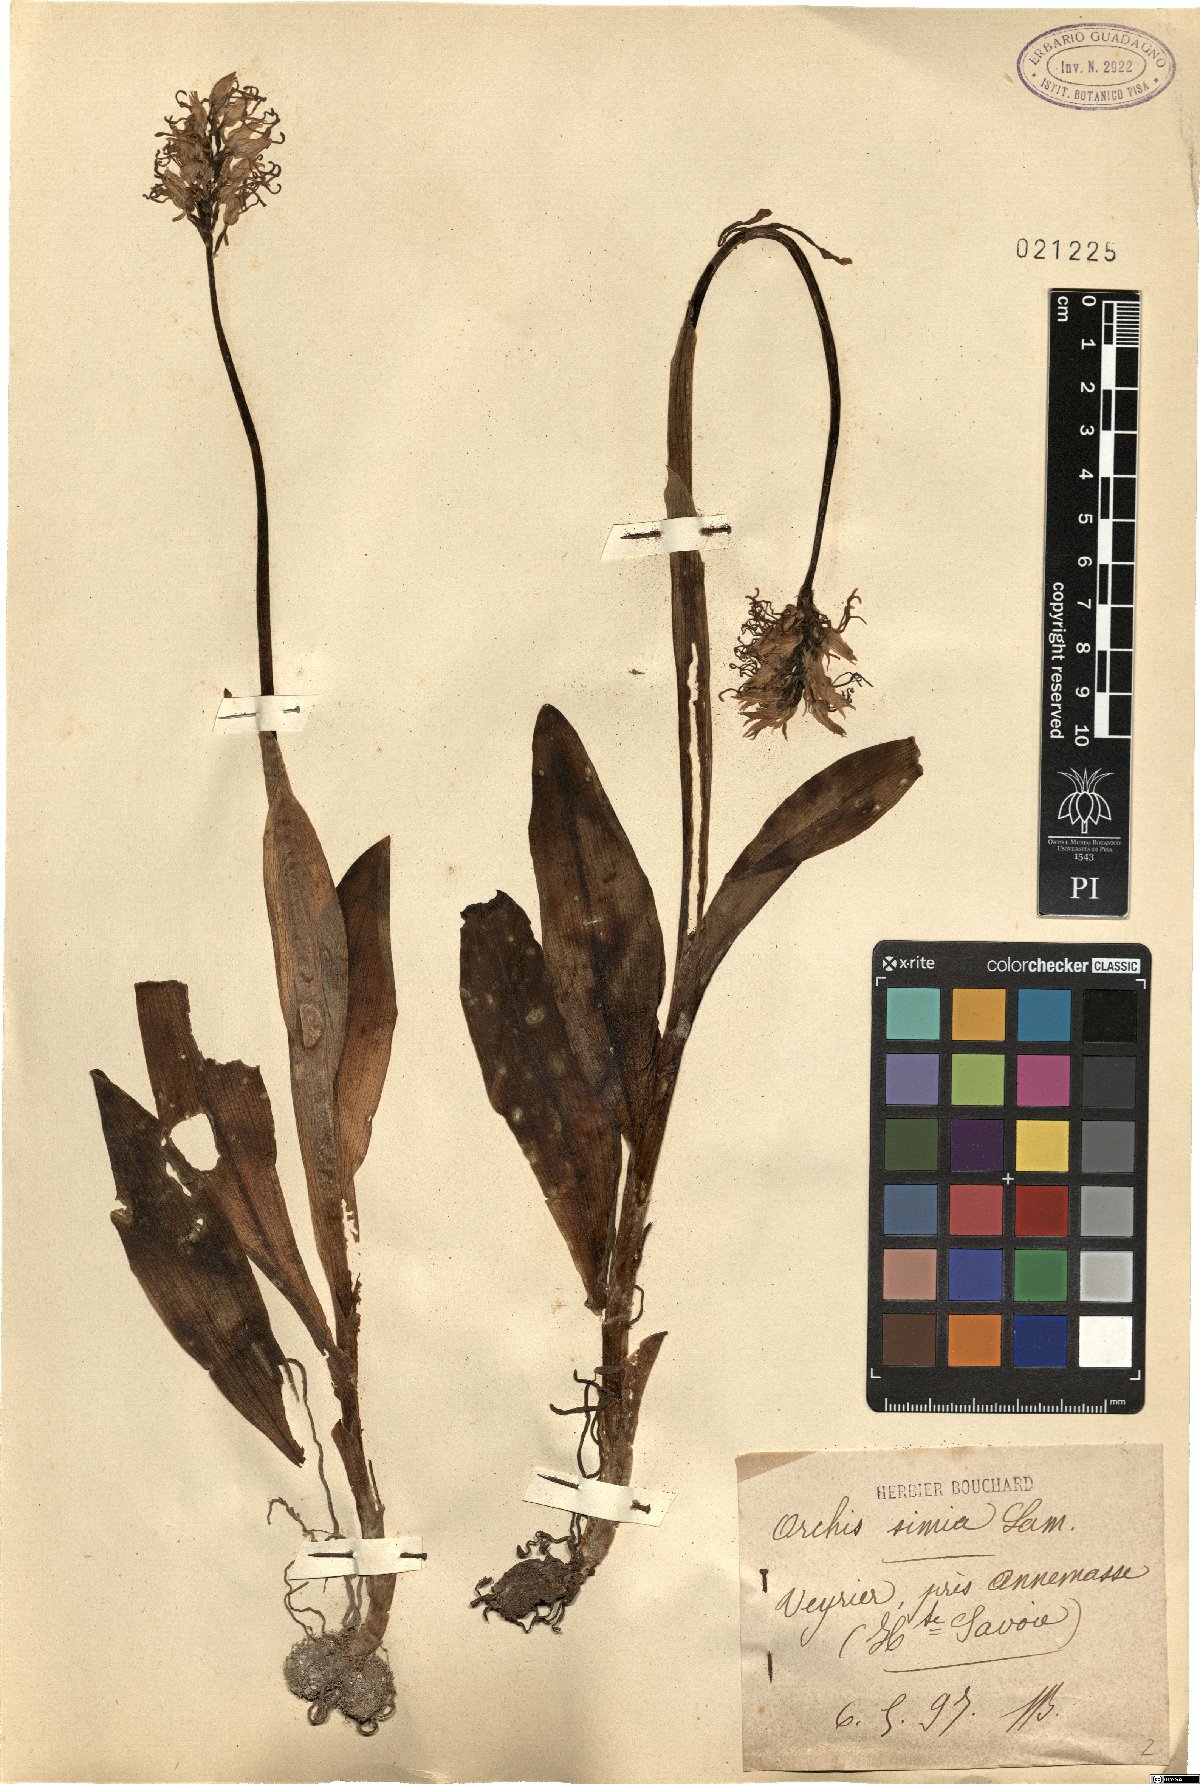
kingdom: Plantae
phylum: Tracheophyta
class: Liliopsida
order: Asparagales
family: Orchidaceae
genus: Orchis
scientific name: Orchis simia
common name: Monkey orchid
